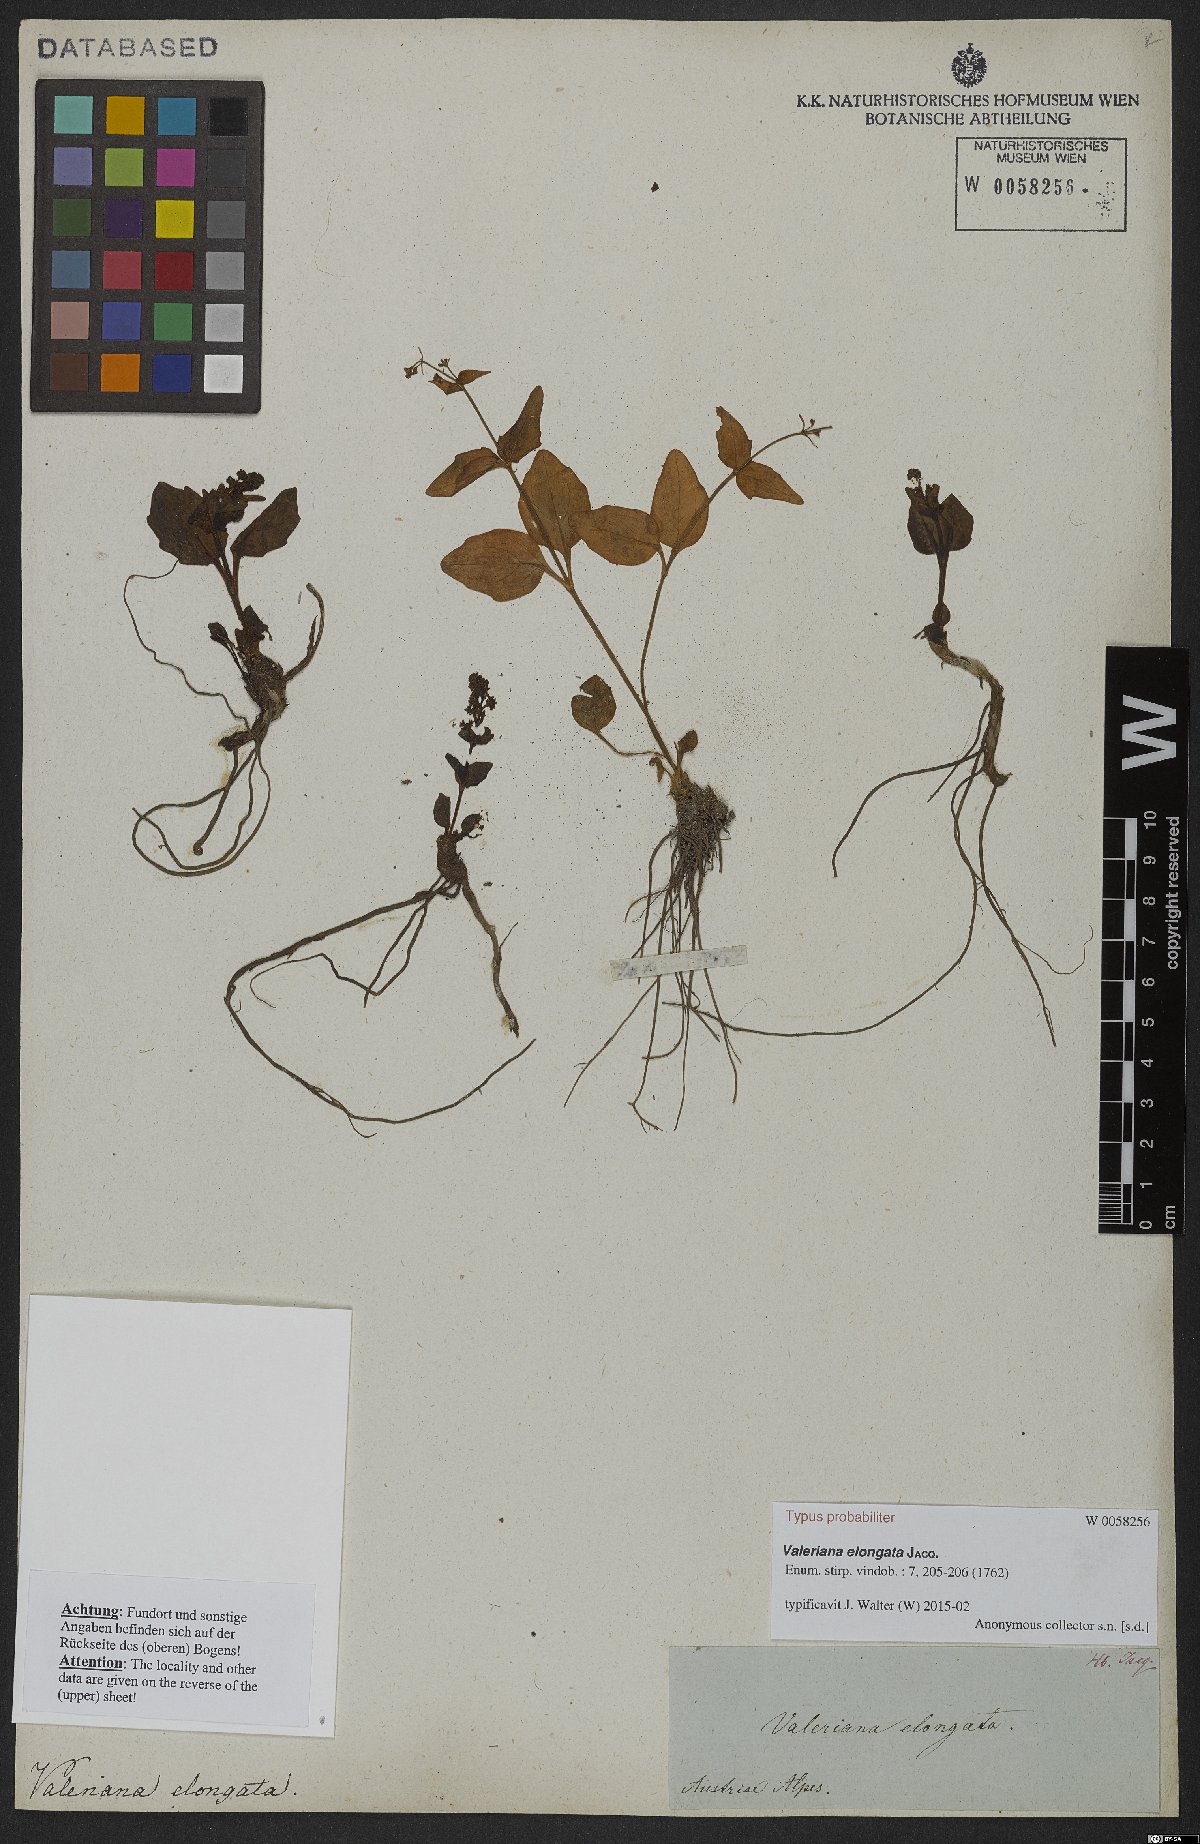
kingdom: Plantae
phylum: Tracheophyta
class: Magnoliopsida
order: Dipsacales
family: Caprifoliaceae
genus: Valeriana
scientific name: Valeriana elongata
